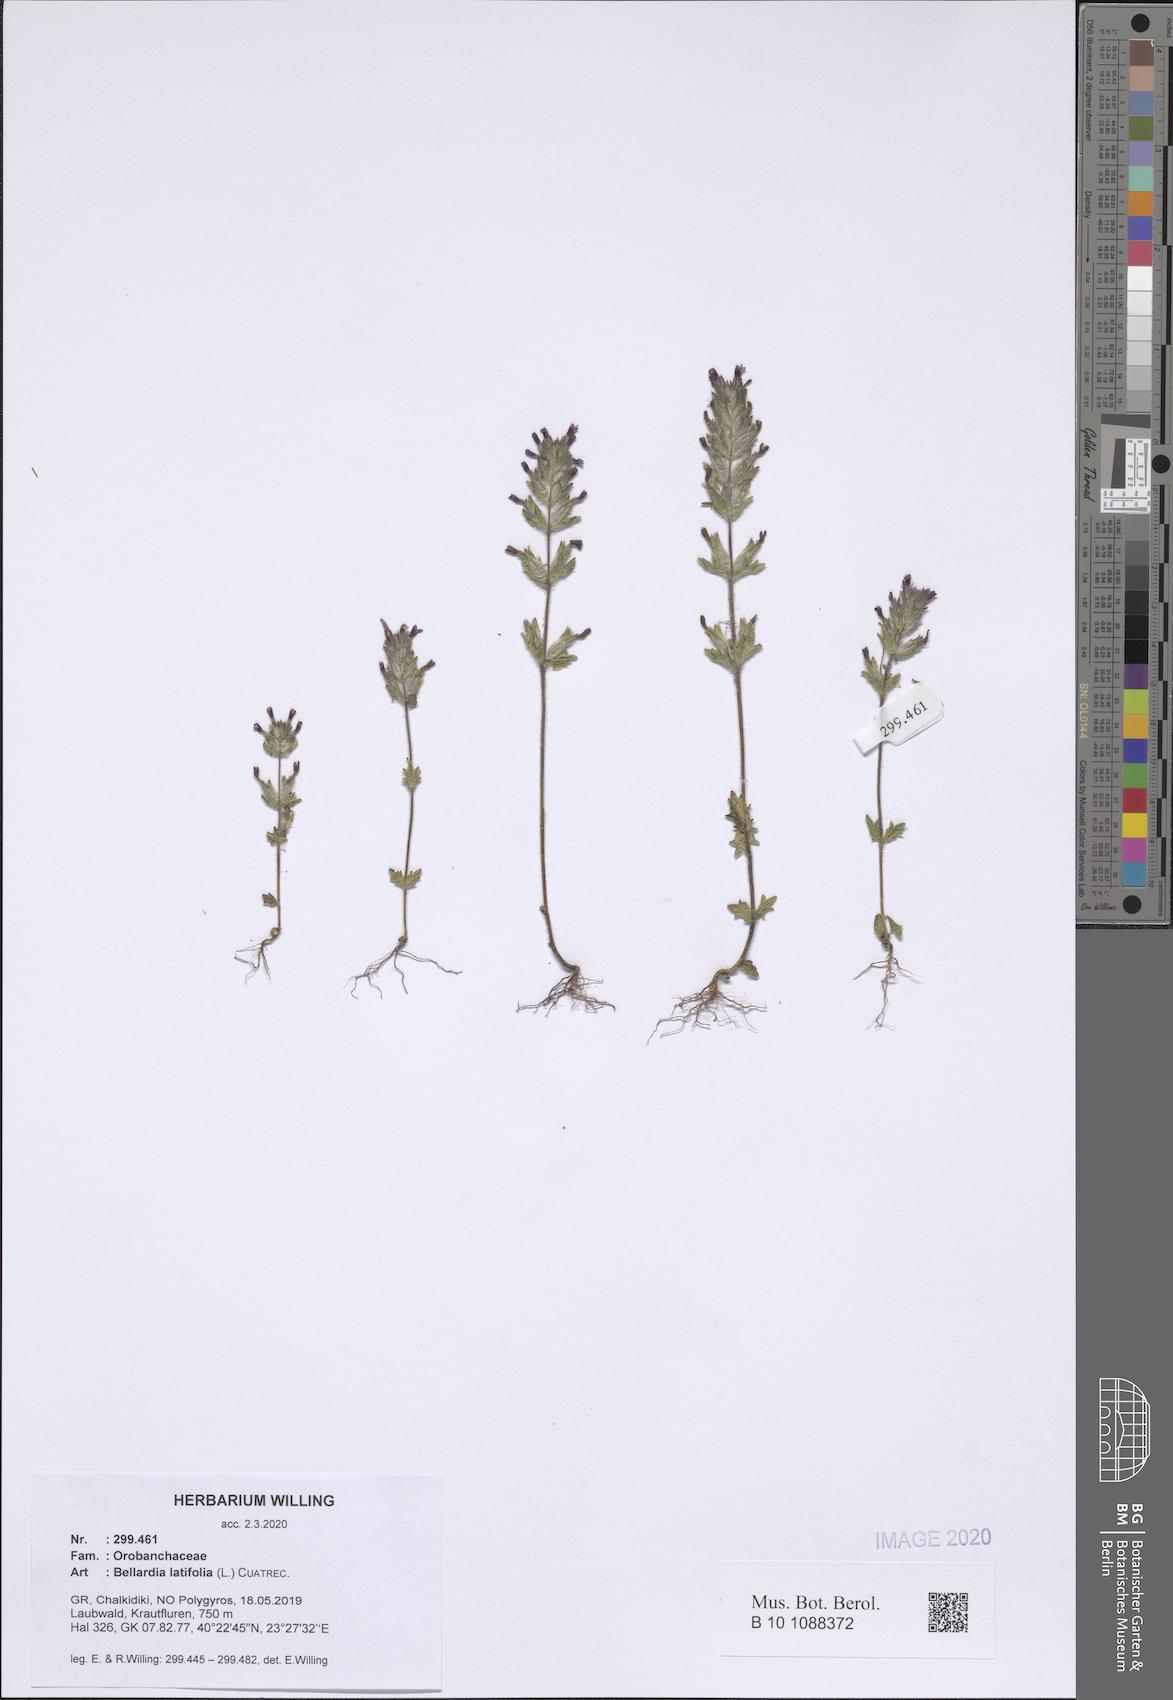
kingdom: Plantae
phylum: Tracheophyta
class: Magnoliopsida
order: Lamiales
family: Orobanchaceae
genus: Parentucellia
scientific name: Parentucellia latifolia
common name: Broadleaf glandweed
